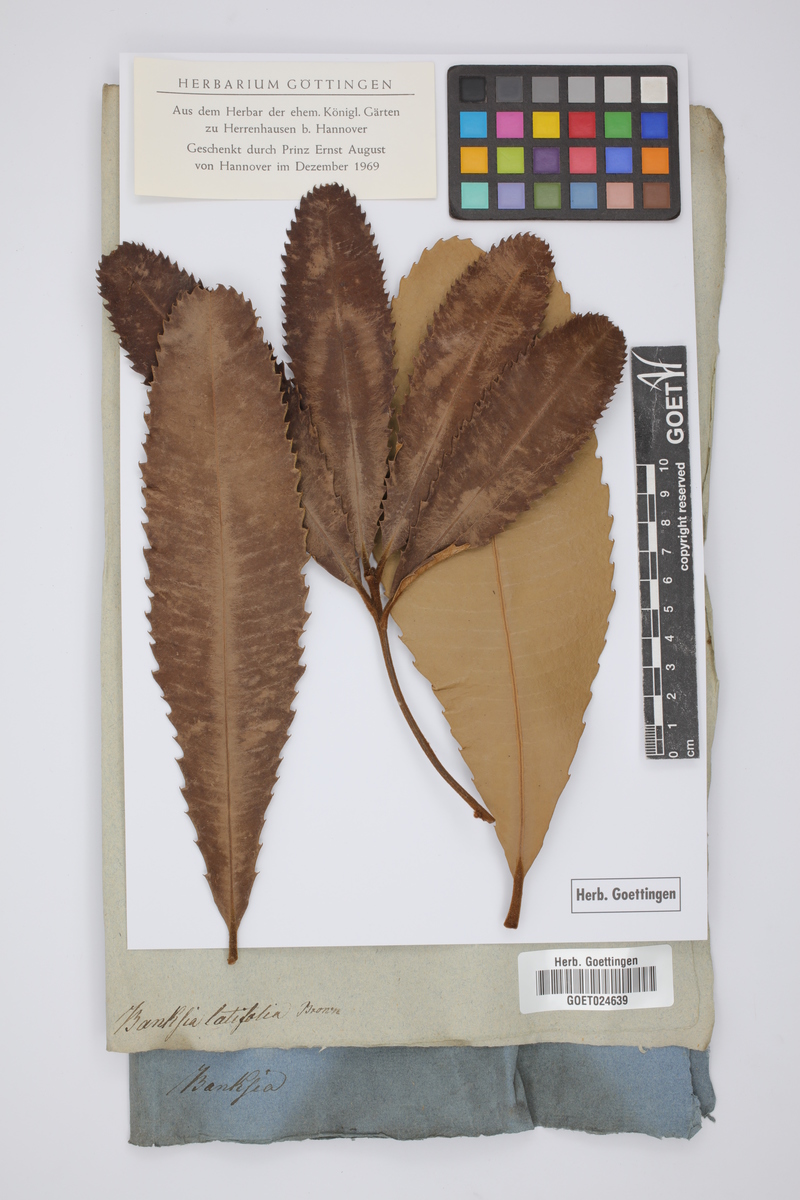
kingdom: Plantae
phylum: Tracheophyta
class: Magnoliopsida
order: Proteales
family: Proteaceae
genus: Banksia
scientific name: Banksia robur
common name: Broadleaf banksia
